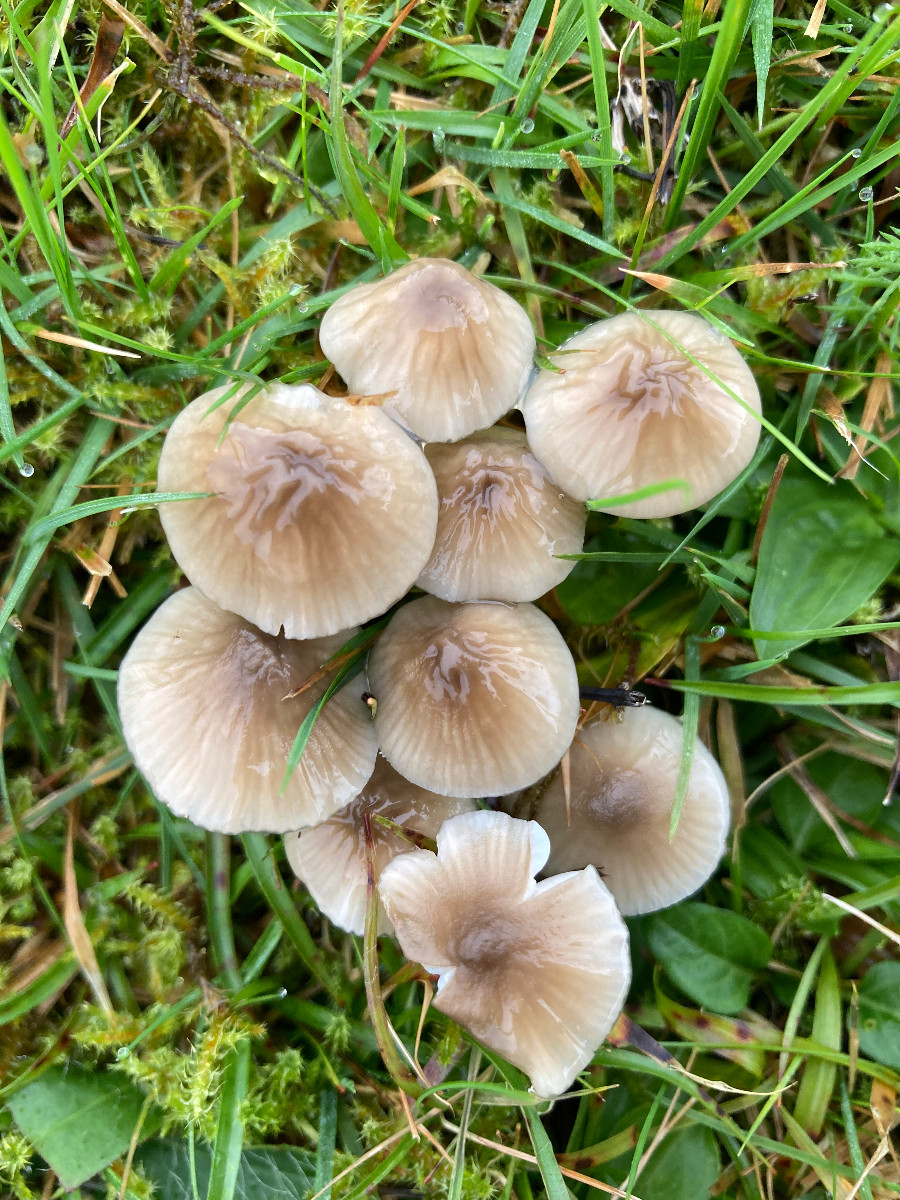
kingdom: Fungi
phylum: Basidiomycota
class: Agaricomycetes
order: Agaricales
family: Hygrophoraceae
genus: Gliophorus
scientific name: Gliophorus irrigatus
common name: slimet vokshat
